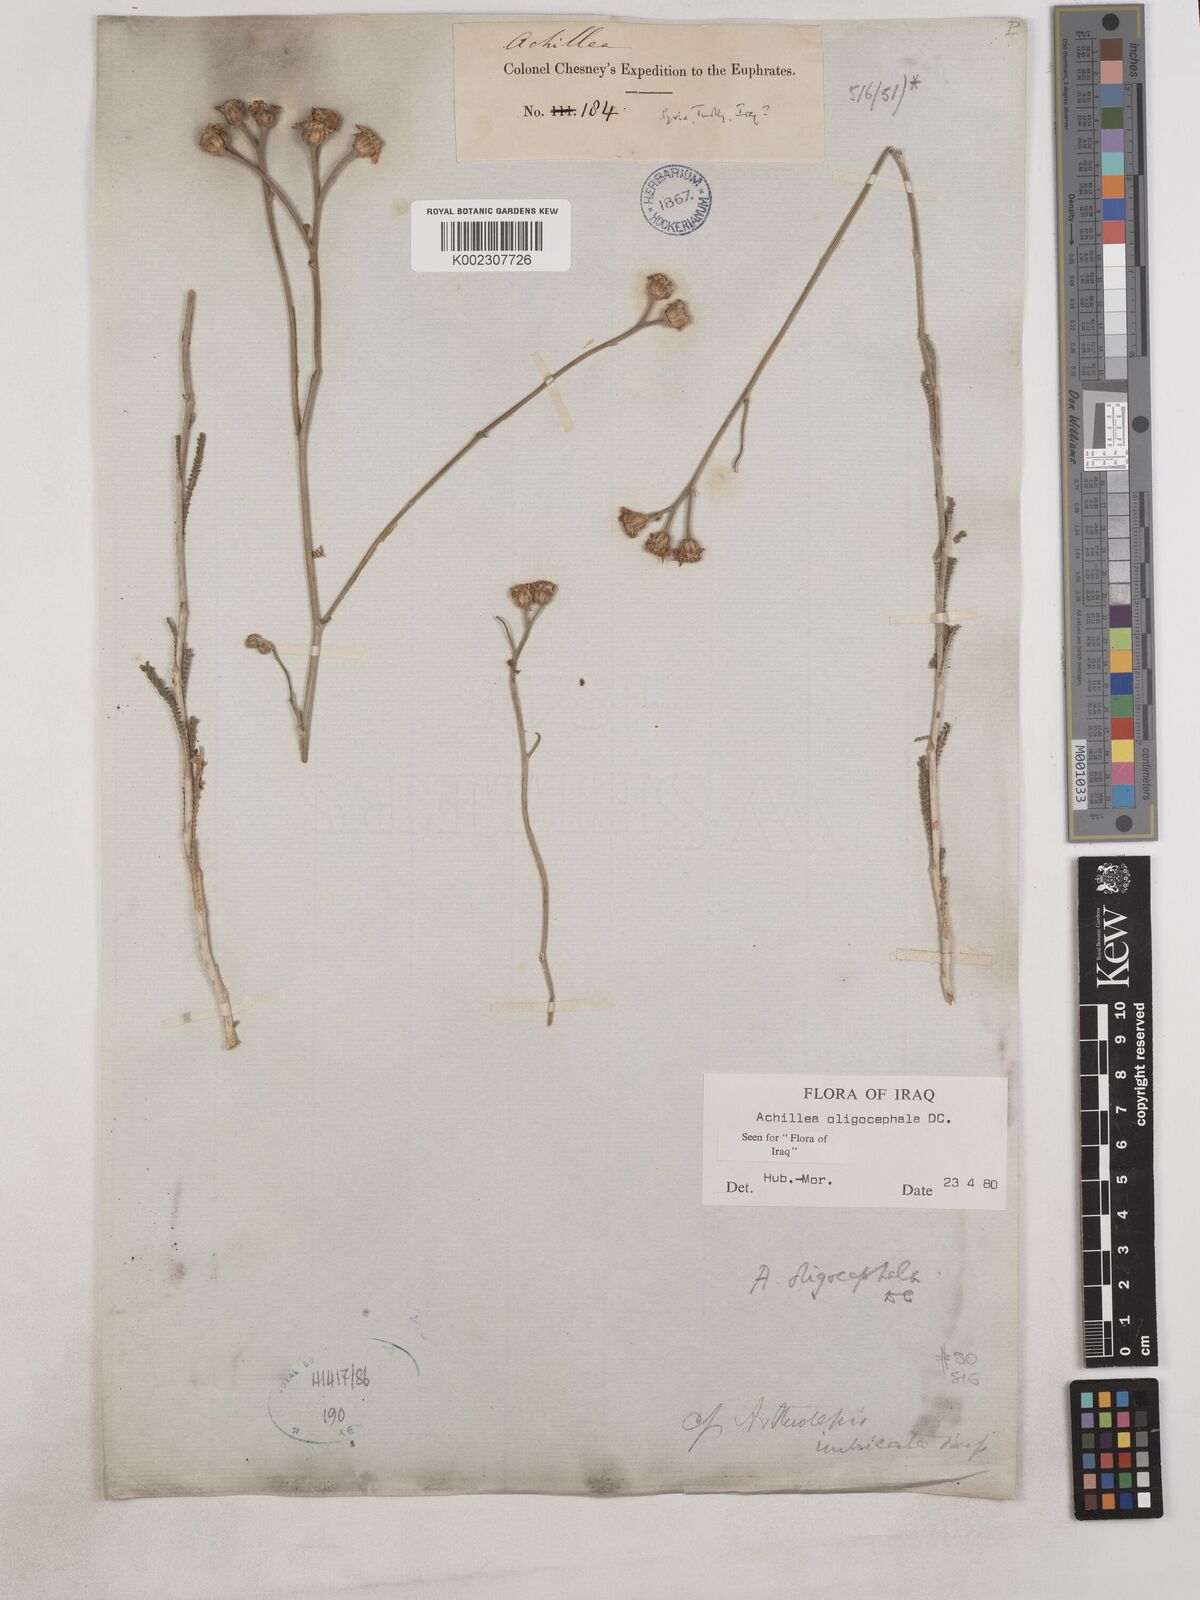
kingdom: Plantae
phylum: Tracheophyta
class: Magnoliopsida
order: Asterales
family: Asteraceae
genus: Achillea
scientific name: Achillea oligocephala
